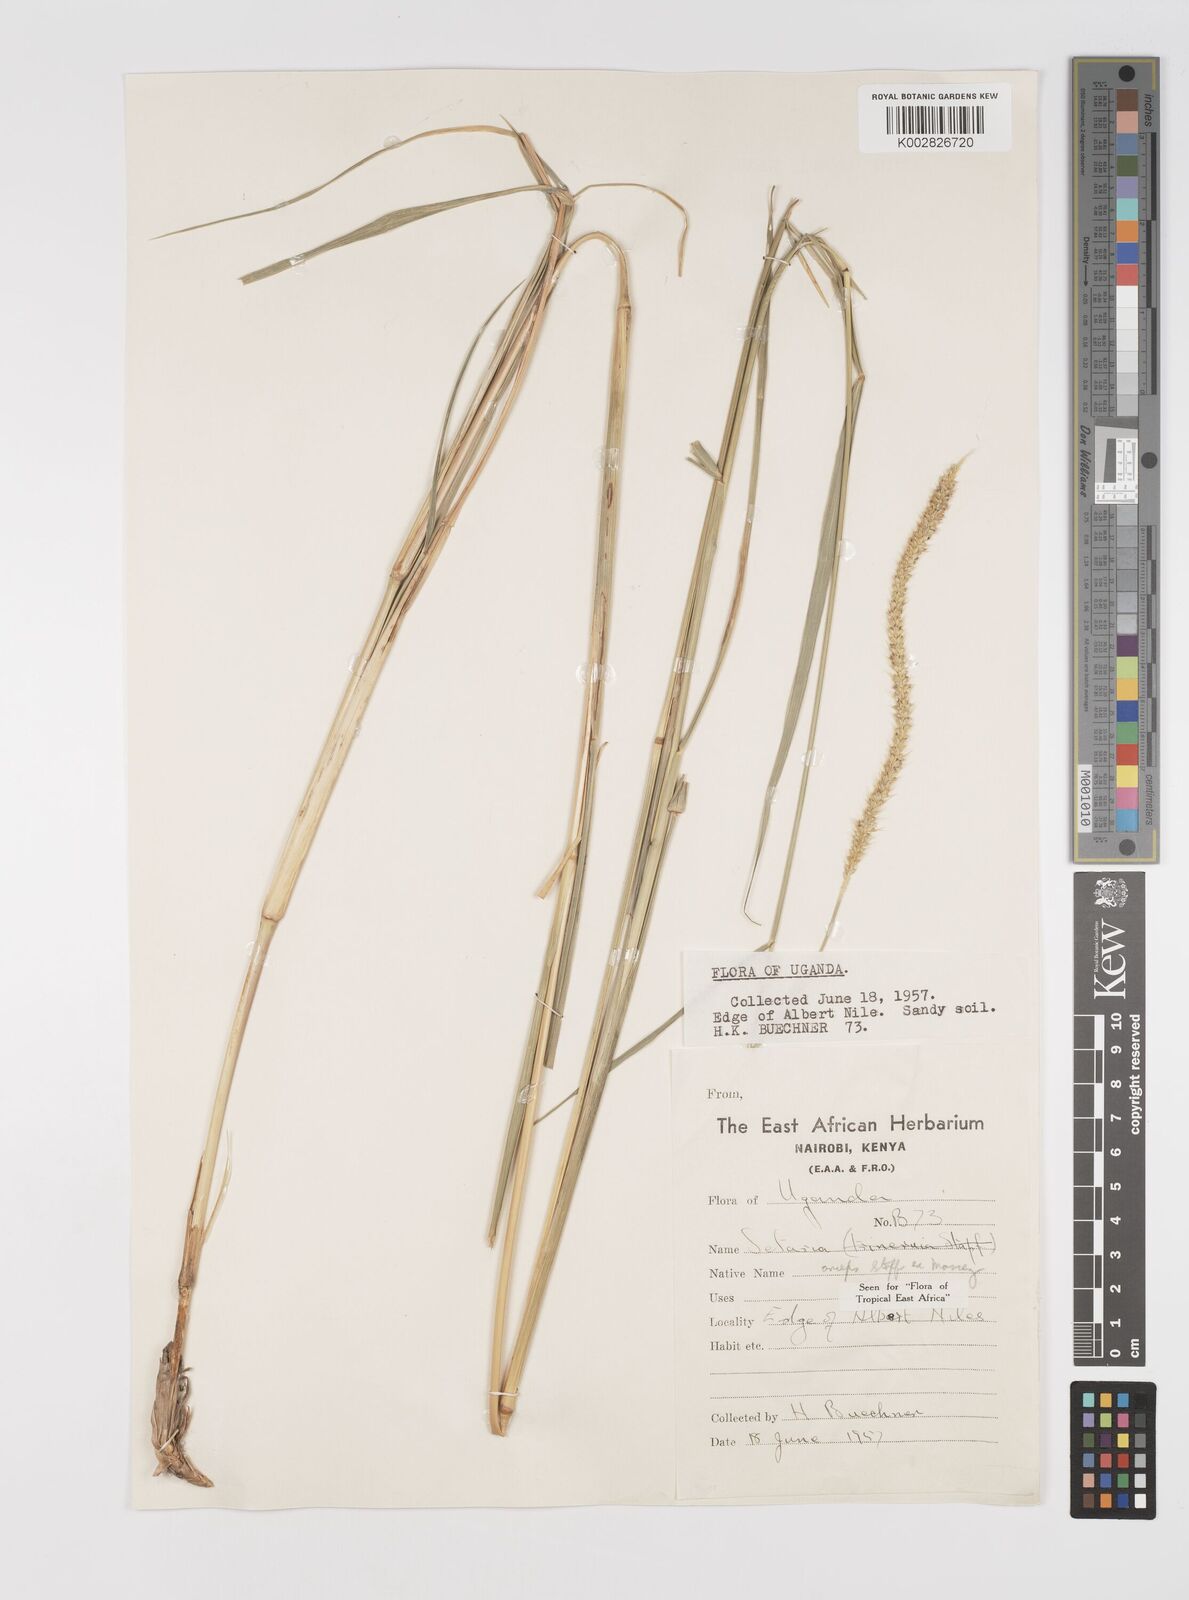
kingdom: Plantae
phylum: Tracheophyta
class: Liliopsida
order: Poales
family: Poaceae
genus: Setaria
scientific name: Setaria sphacelata
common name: African bristlegrass
